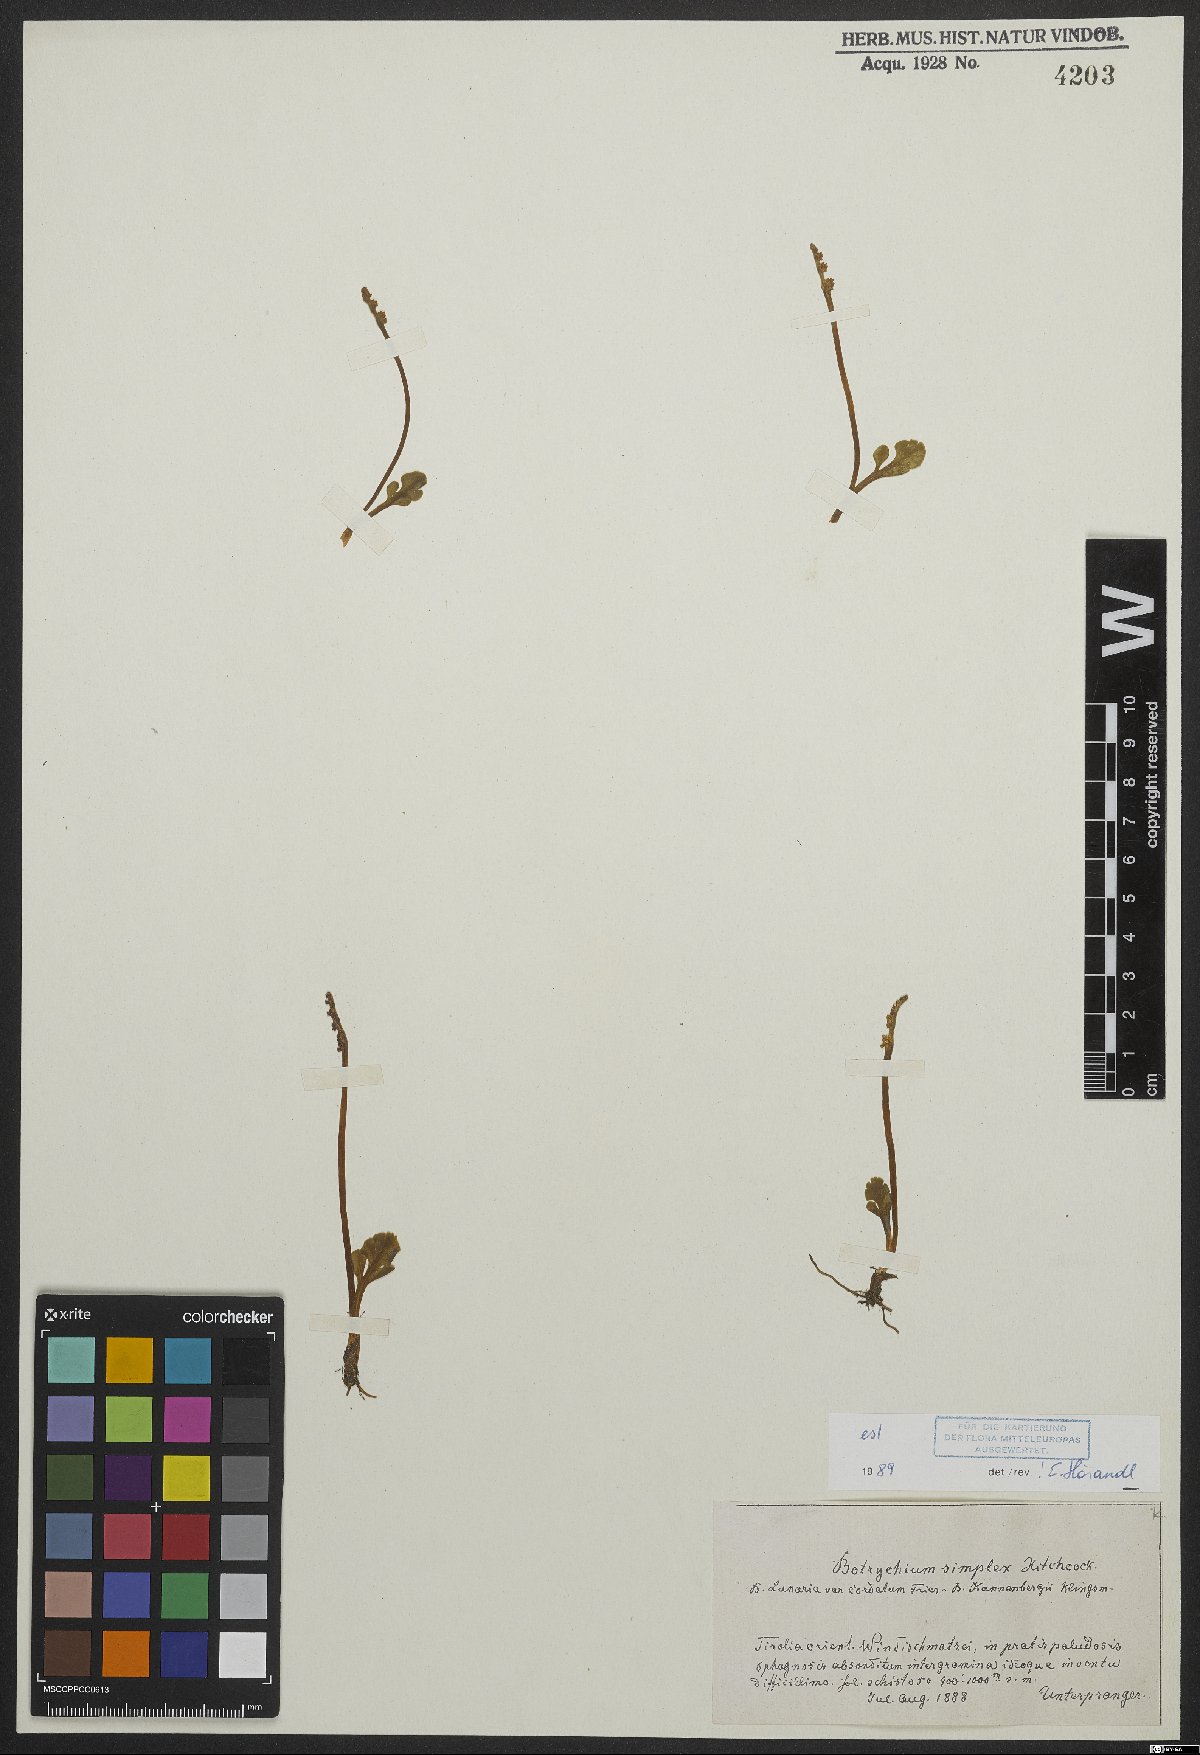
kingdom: Plantae
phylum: Tracheophyta
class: Polypodiopsida
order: Ophioglossales
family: Ophioglossaceae
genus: Botrychium
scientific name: Botrychium simplex
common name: Least moonwort
